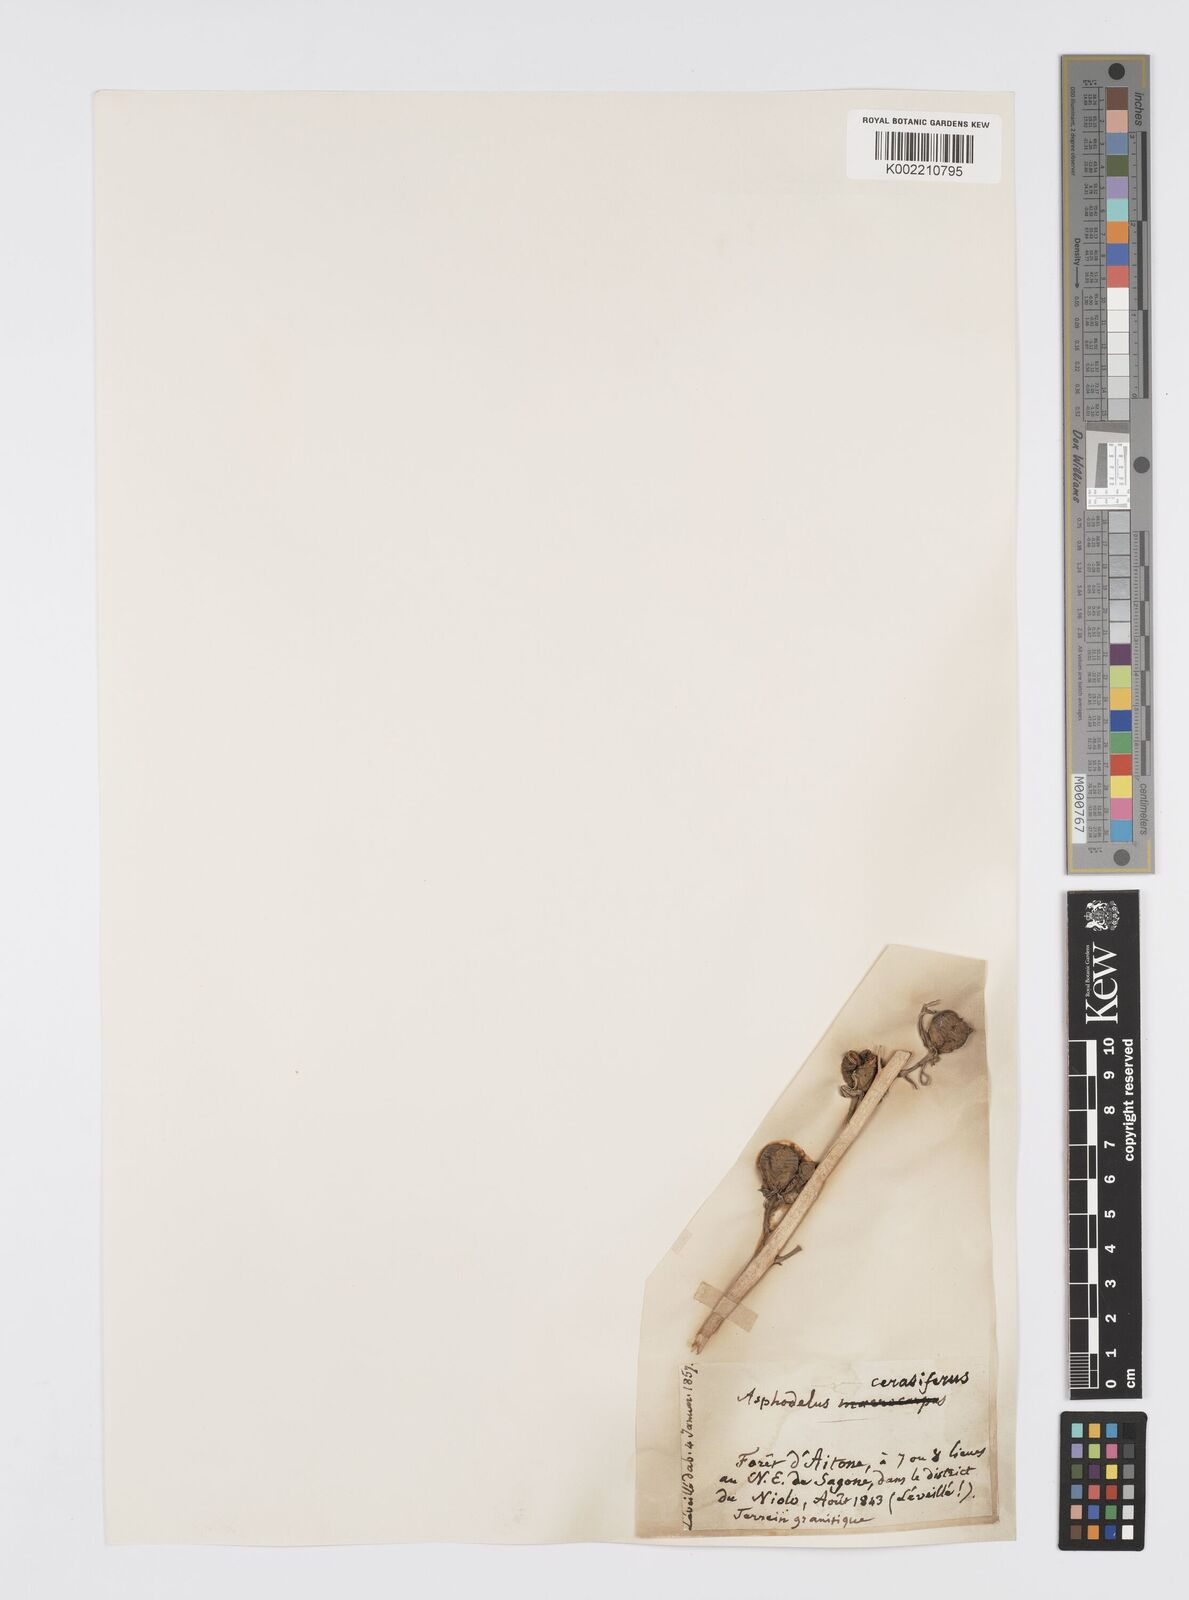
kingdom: Plantae
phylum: Tracheophyta
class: Liliopsida
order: Asparagales
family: Asphodelaceae
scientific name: Asphodelaceae
